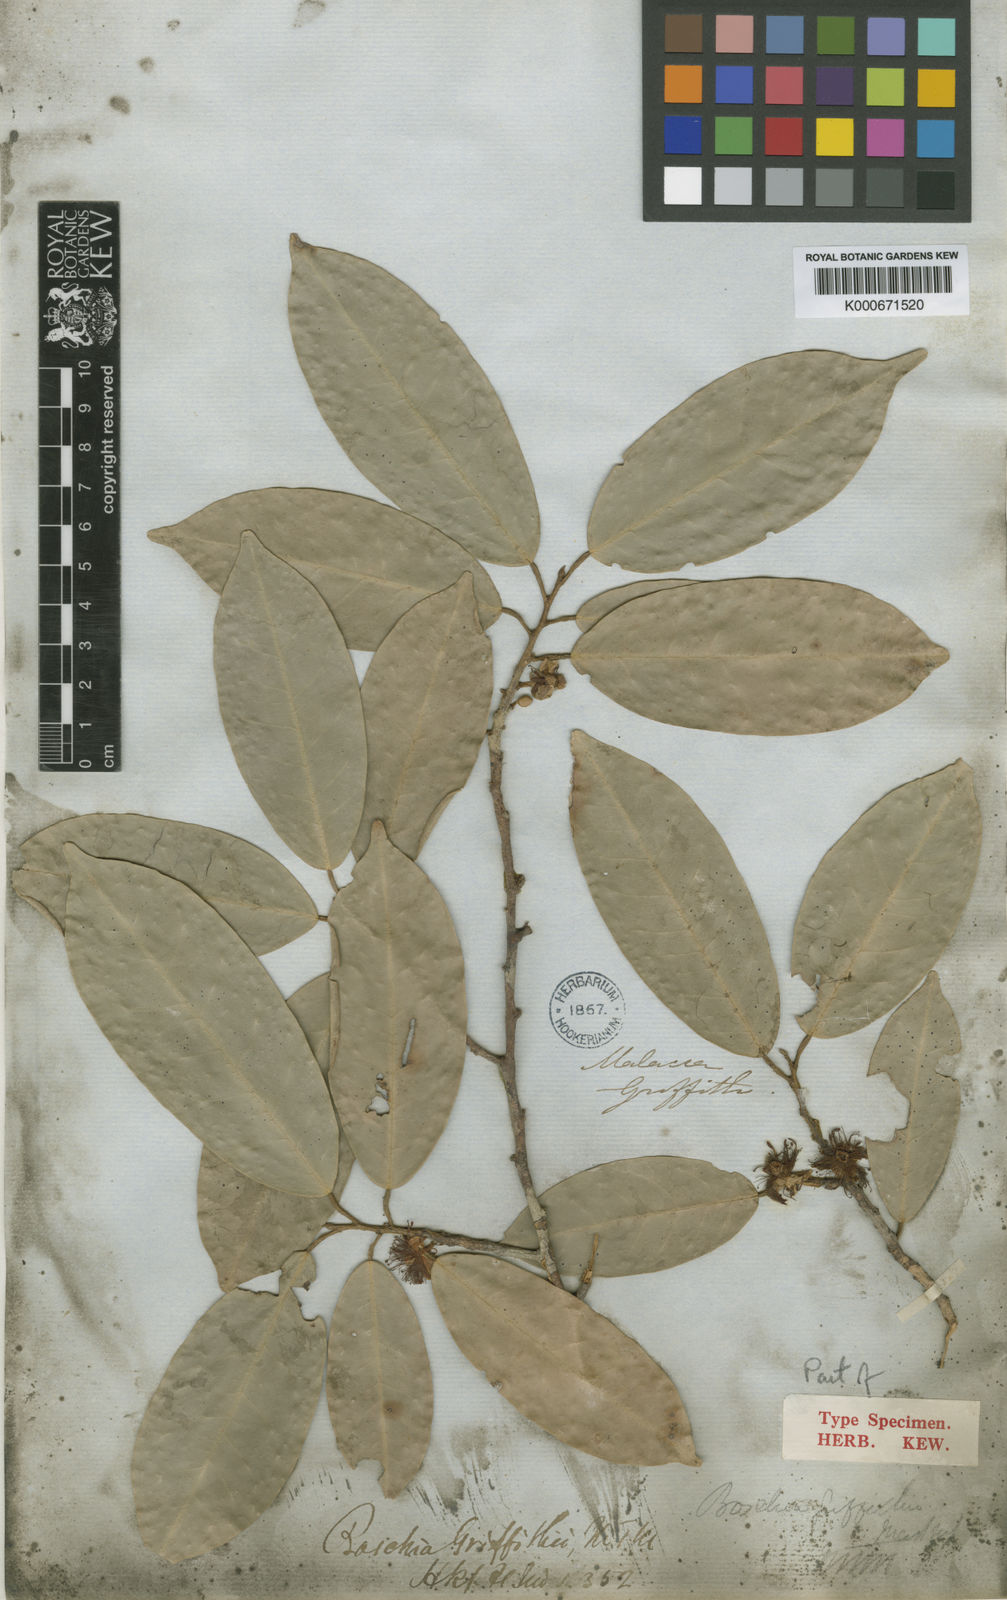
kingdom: Plantae
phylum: Tracheophyta
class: Magnoliopsida
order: Malvales
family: Malvaceae
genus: Boschia
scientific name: Boschia griffithii
